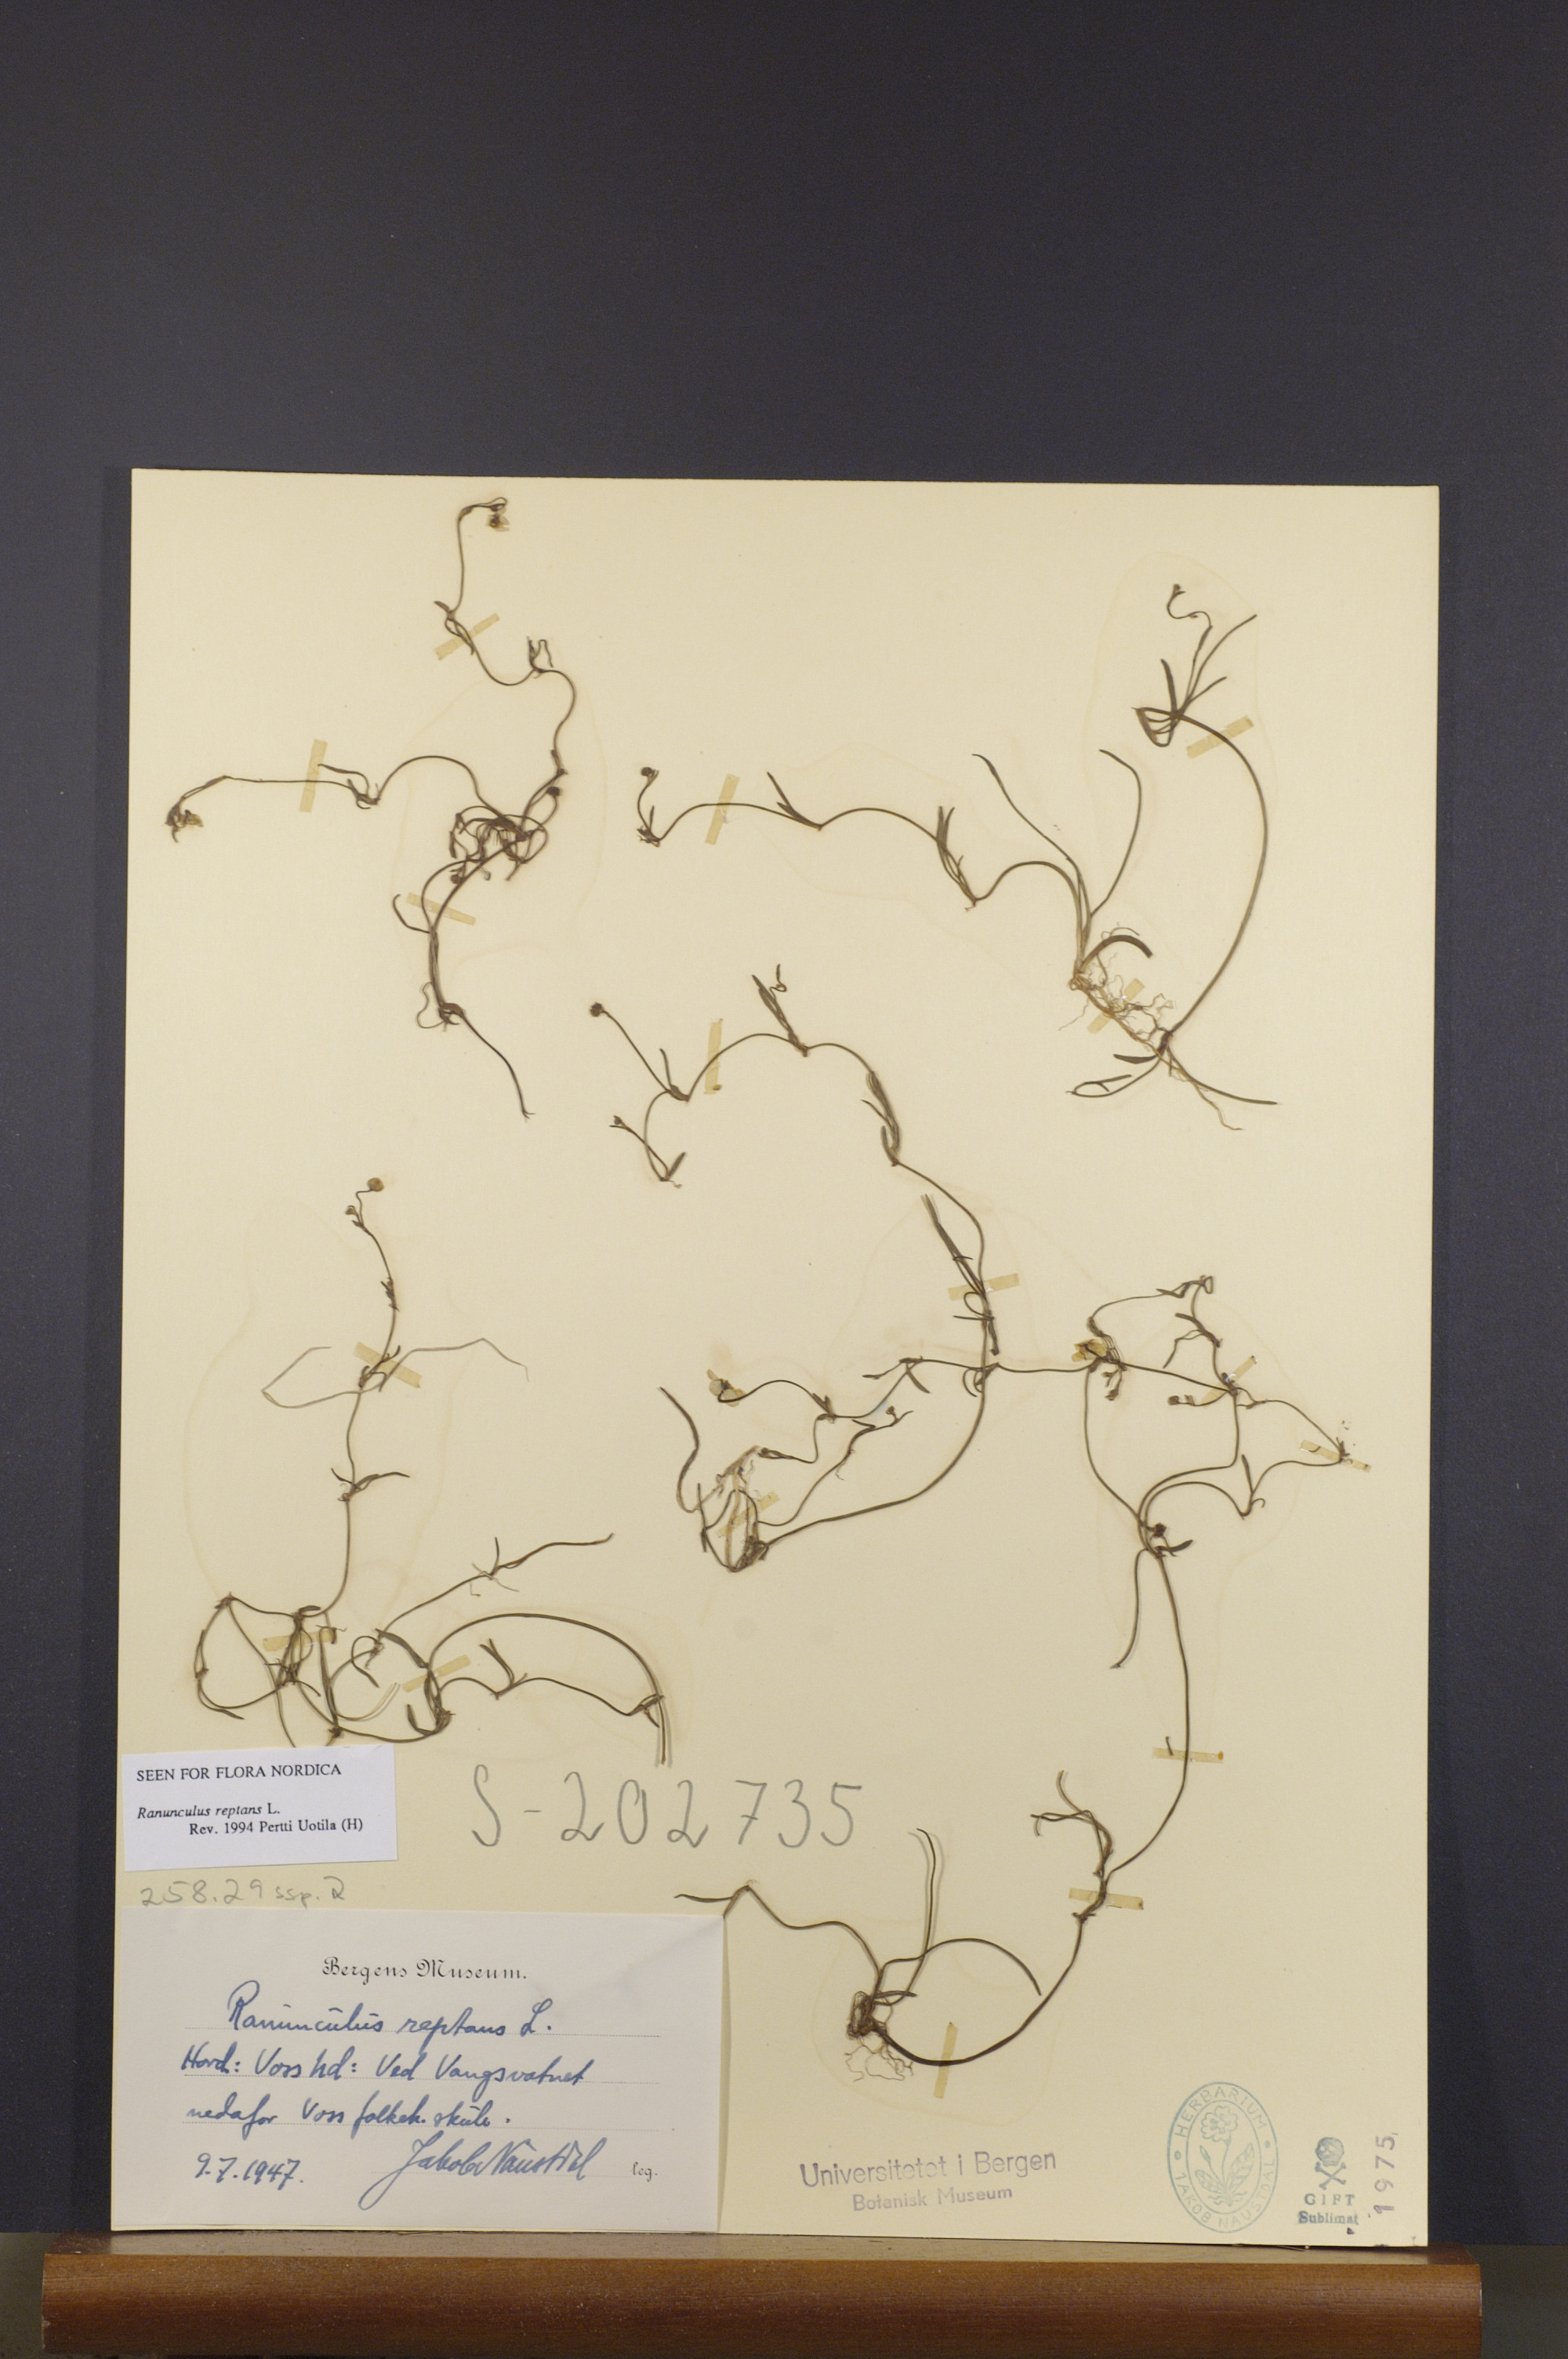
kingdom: Plantae
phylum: Tracheophyta
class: Magnoliopsida
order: Ranunculales
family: Ranunculaceae
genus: Ranunculus
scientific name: Ranunculus reptans
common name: Creeping spearwort
